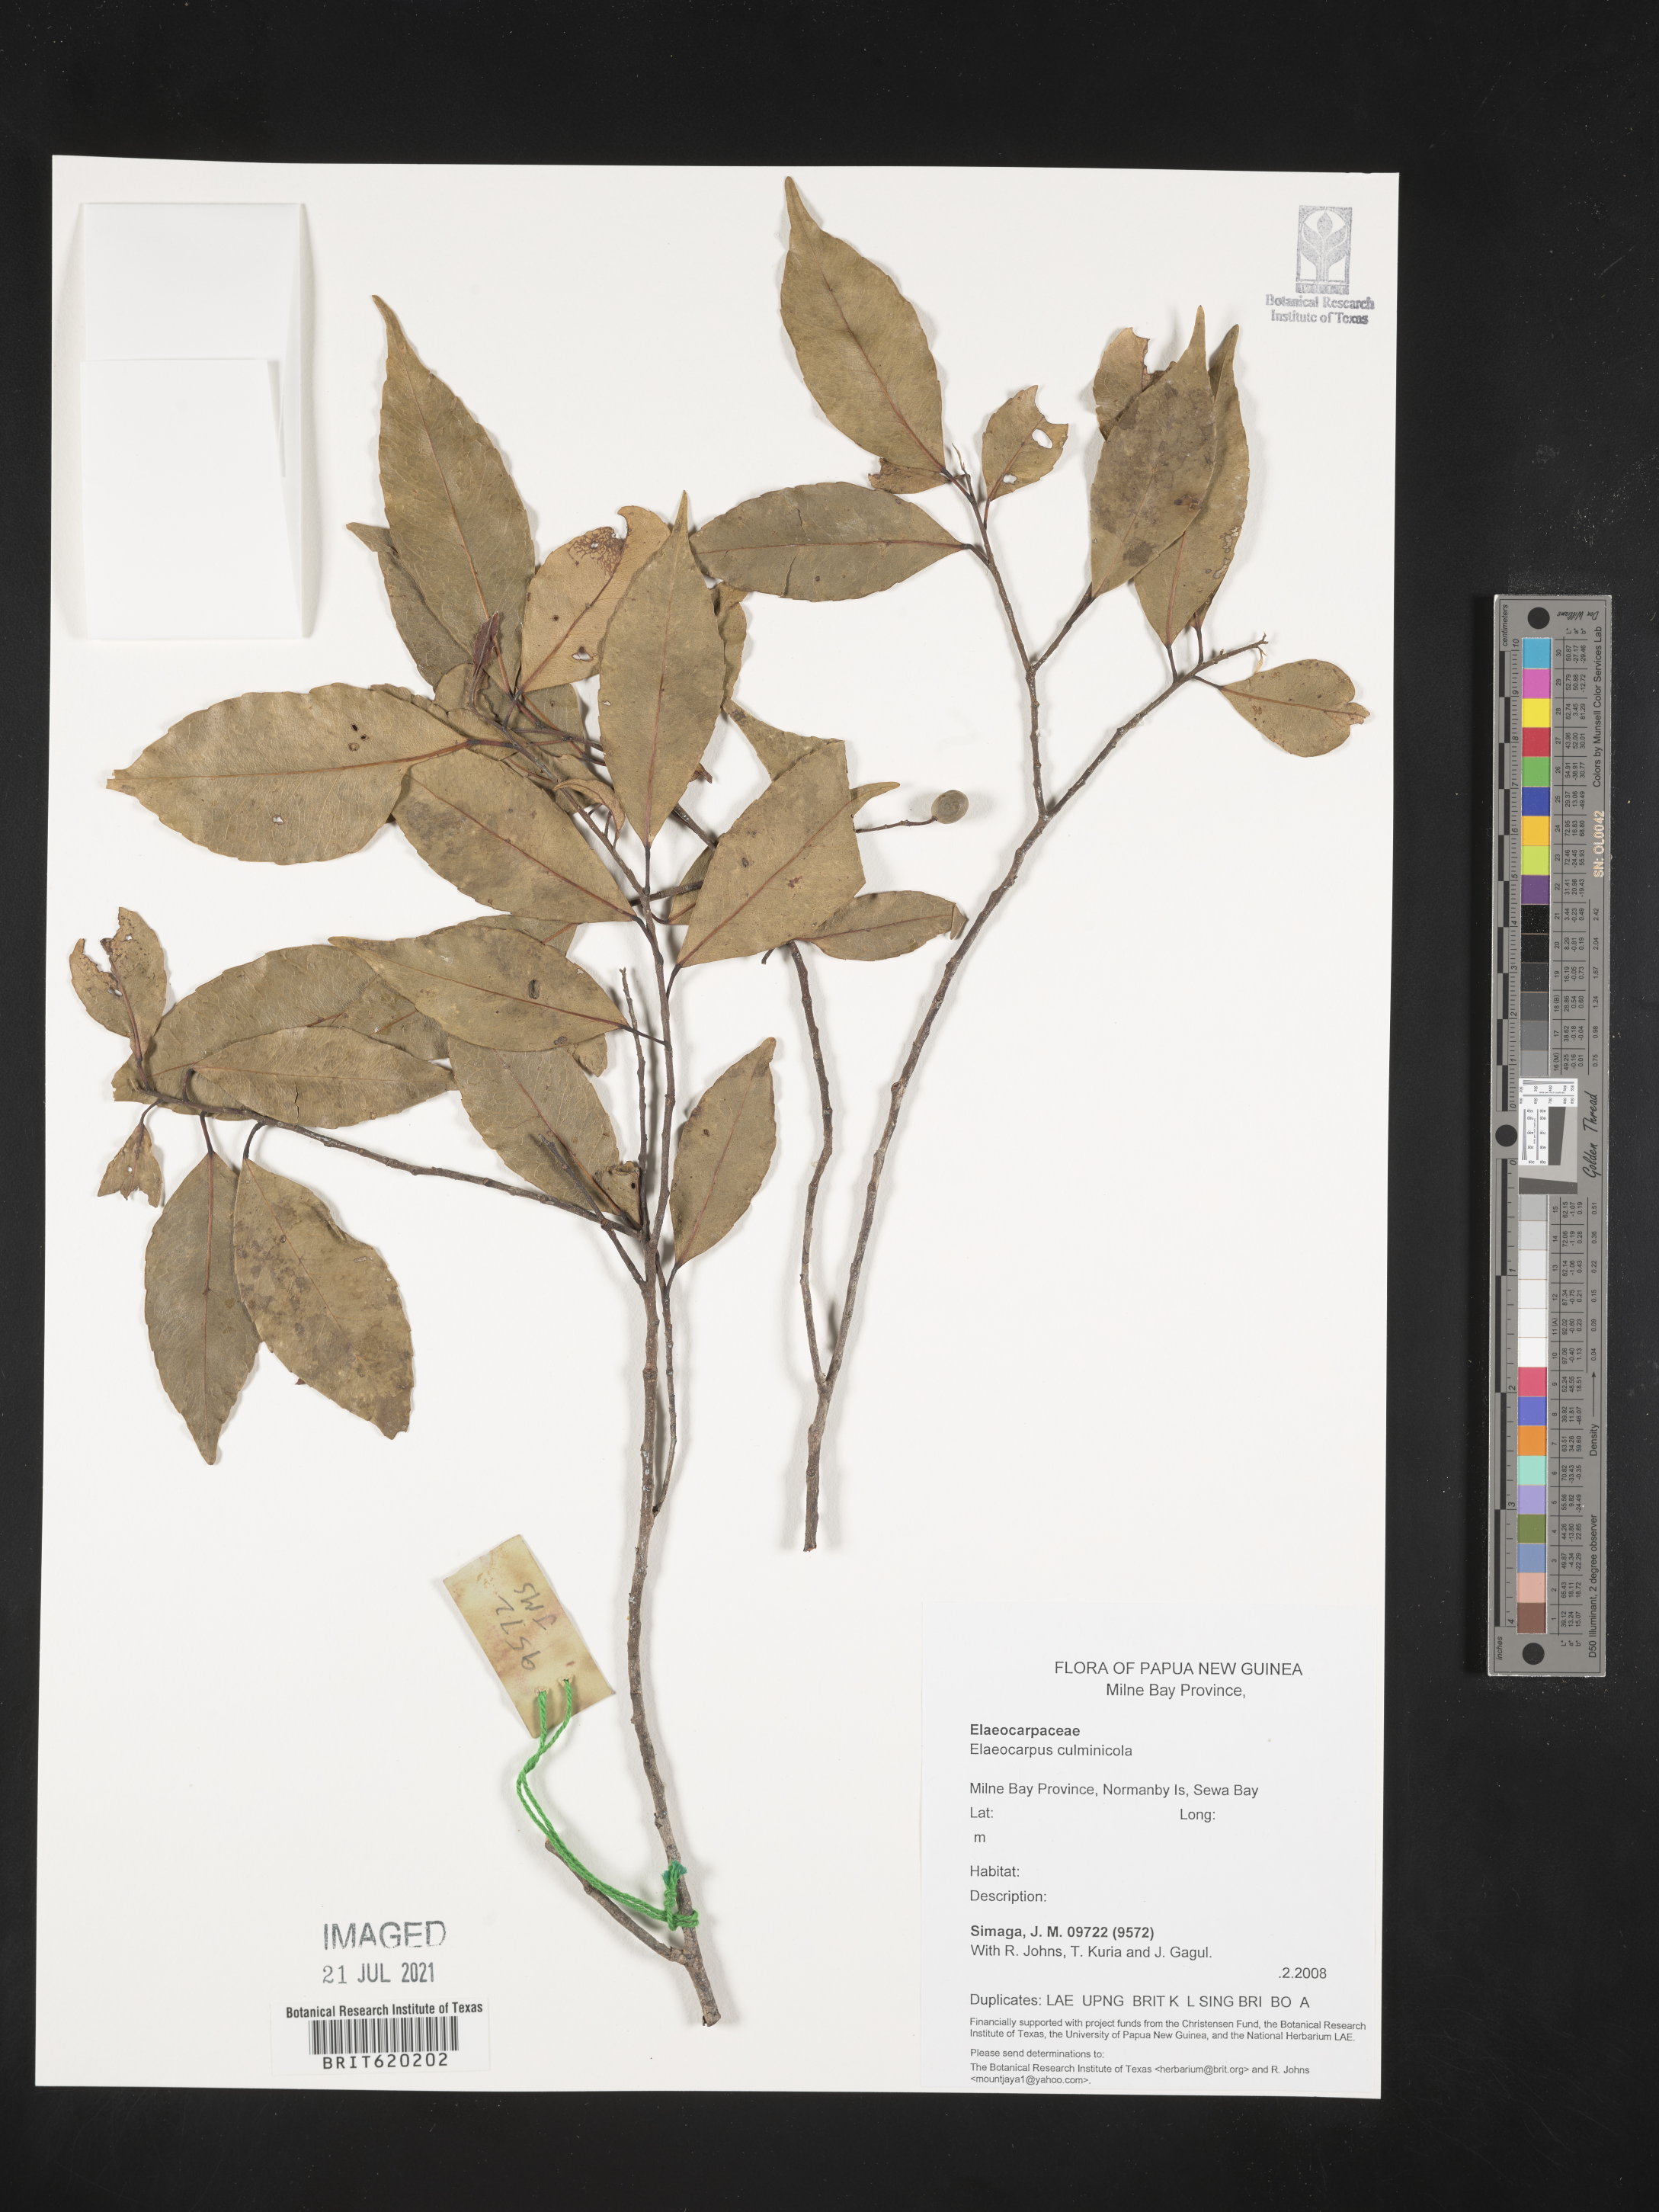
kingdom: Plantae
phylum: Tracheophyta
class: Magnoliopsida
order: Oxalidales
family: Elaeocarpaceae
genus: Elaeocarpus
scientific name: Elaeocarpus culminicola
